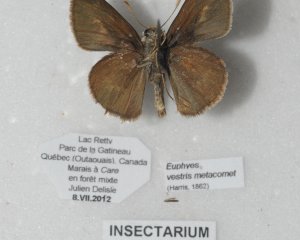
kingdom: Animalia
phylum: Arthropoda
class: Insecta
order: Lepidoptera
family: Hesperiidae
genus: Euphyes
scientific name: Euphyes vestris
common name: Dun Skipper
